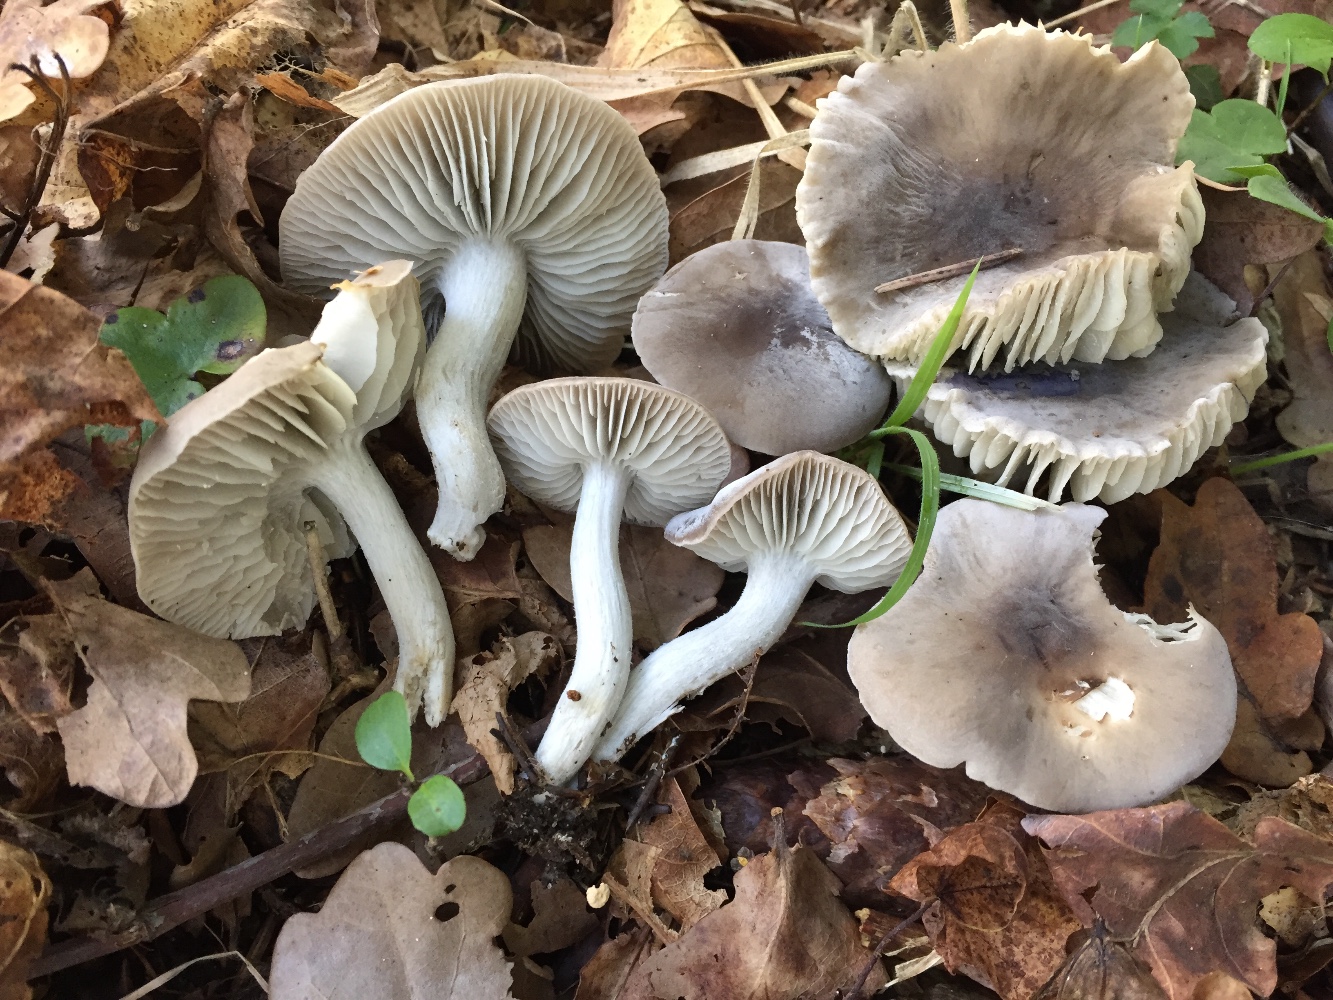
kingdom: Fungi
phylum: Basidiomycota
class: Agaricomycetes
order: Agaricales
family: Tricholomataceae
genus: Dermoloma
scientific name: Dermoloma cuneifolium
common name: eng-nonnehat
